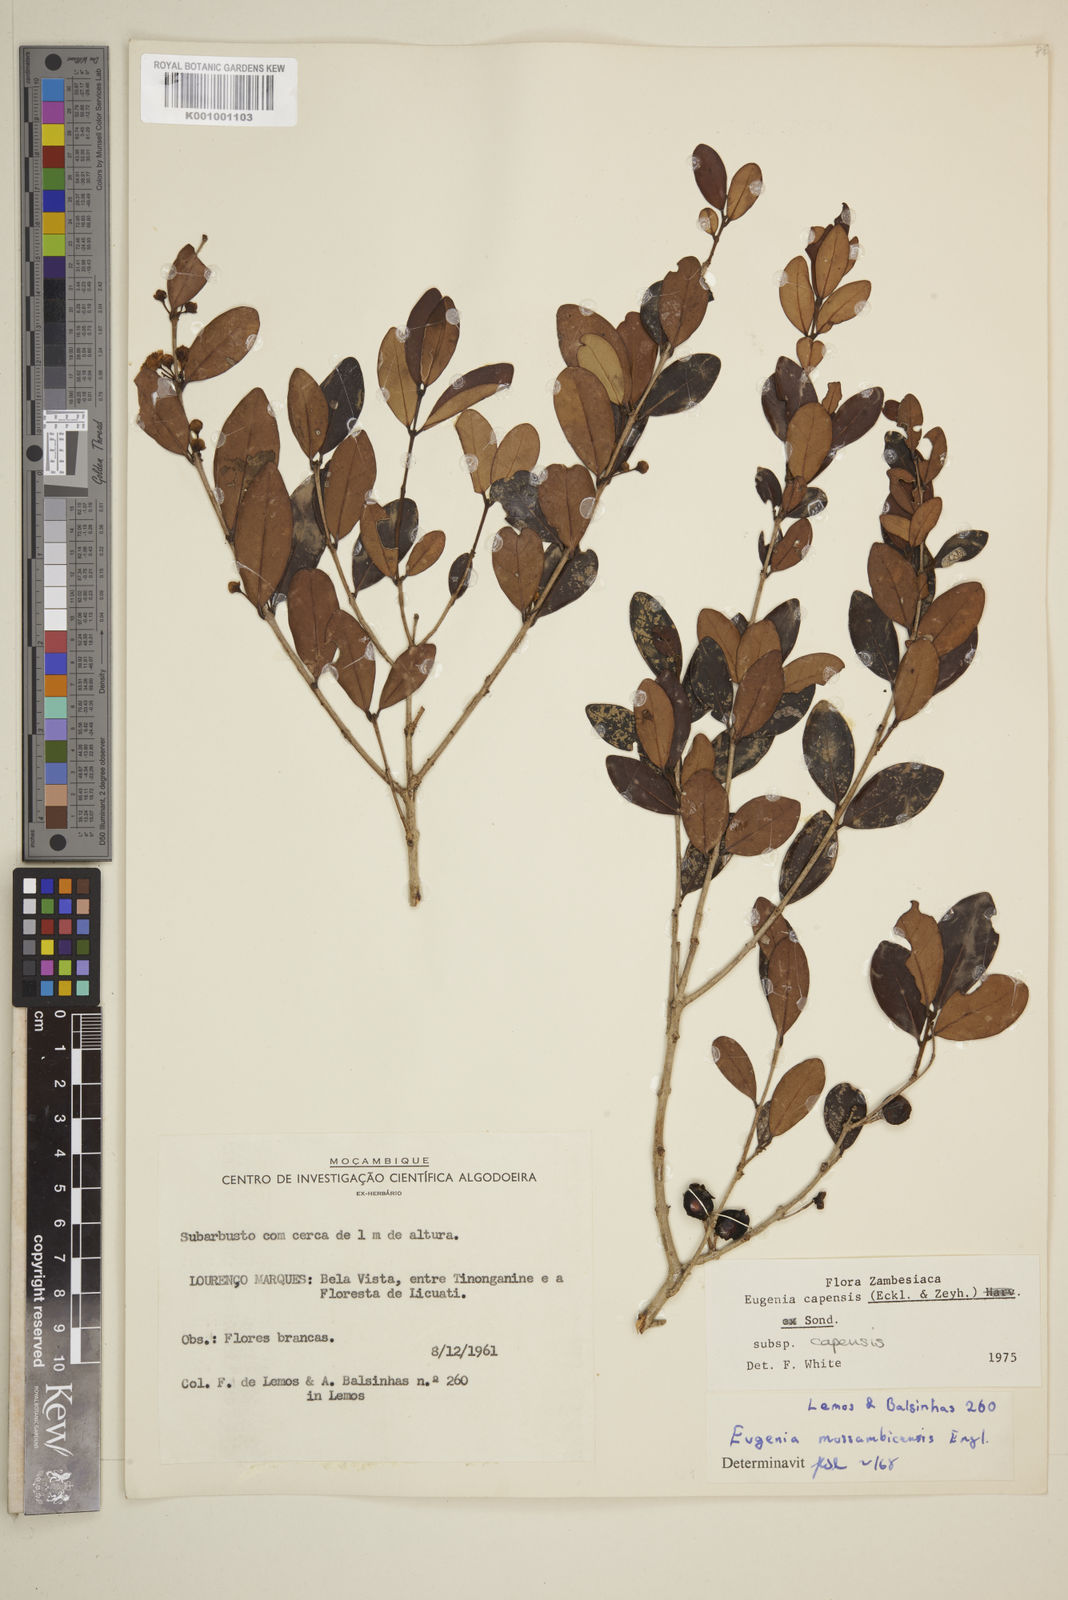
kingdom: Plantae
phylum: Tracheophyta
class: Magnoliopsida
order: Myrtales
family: Myrtaceae
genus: Eugenia
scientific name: Eugenia capensis
